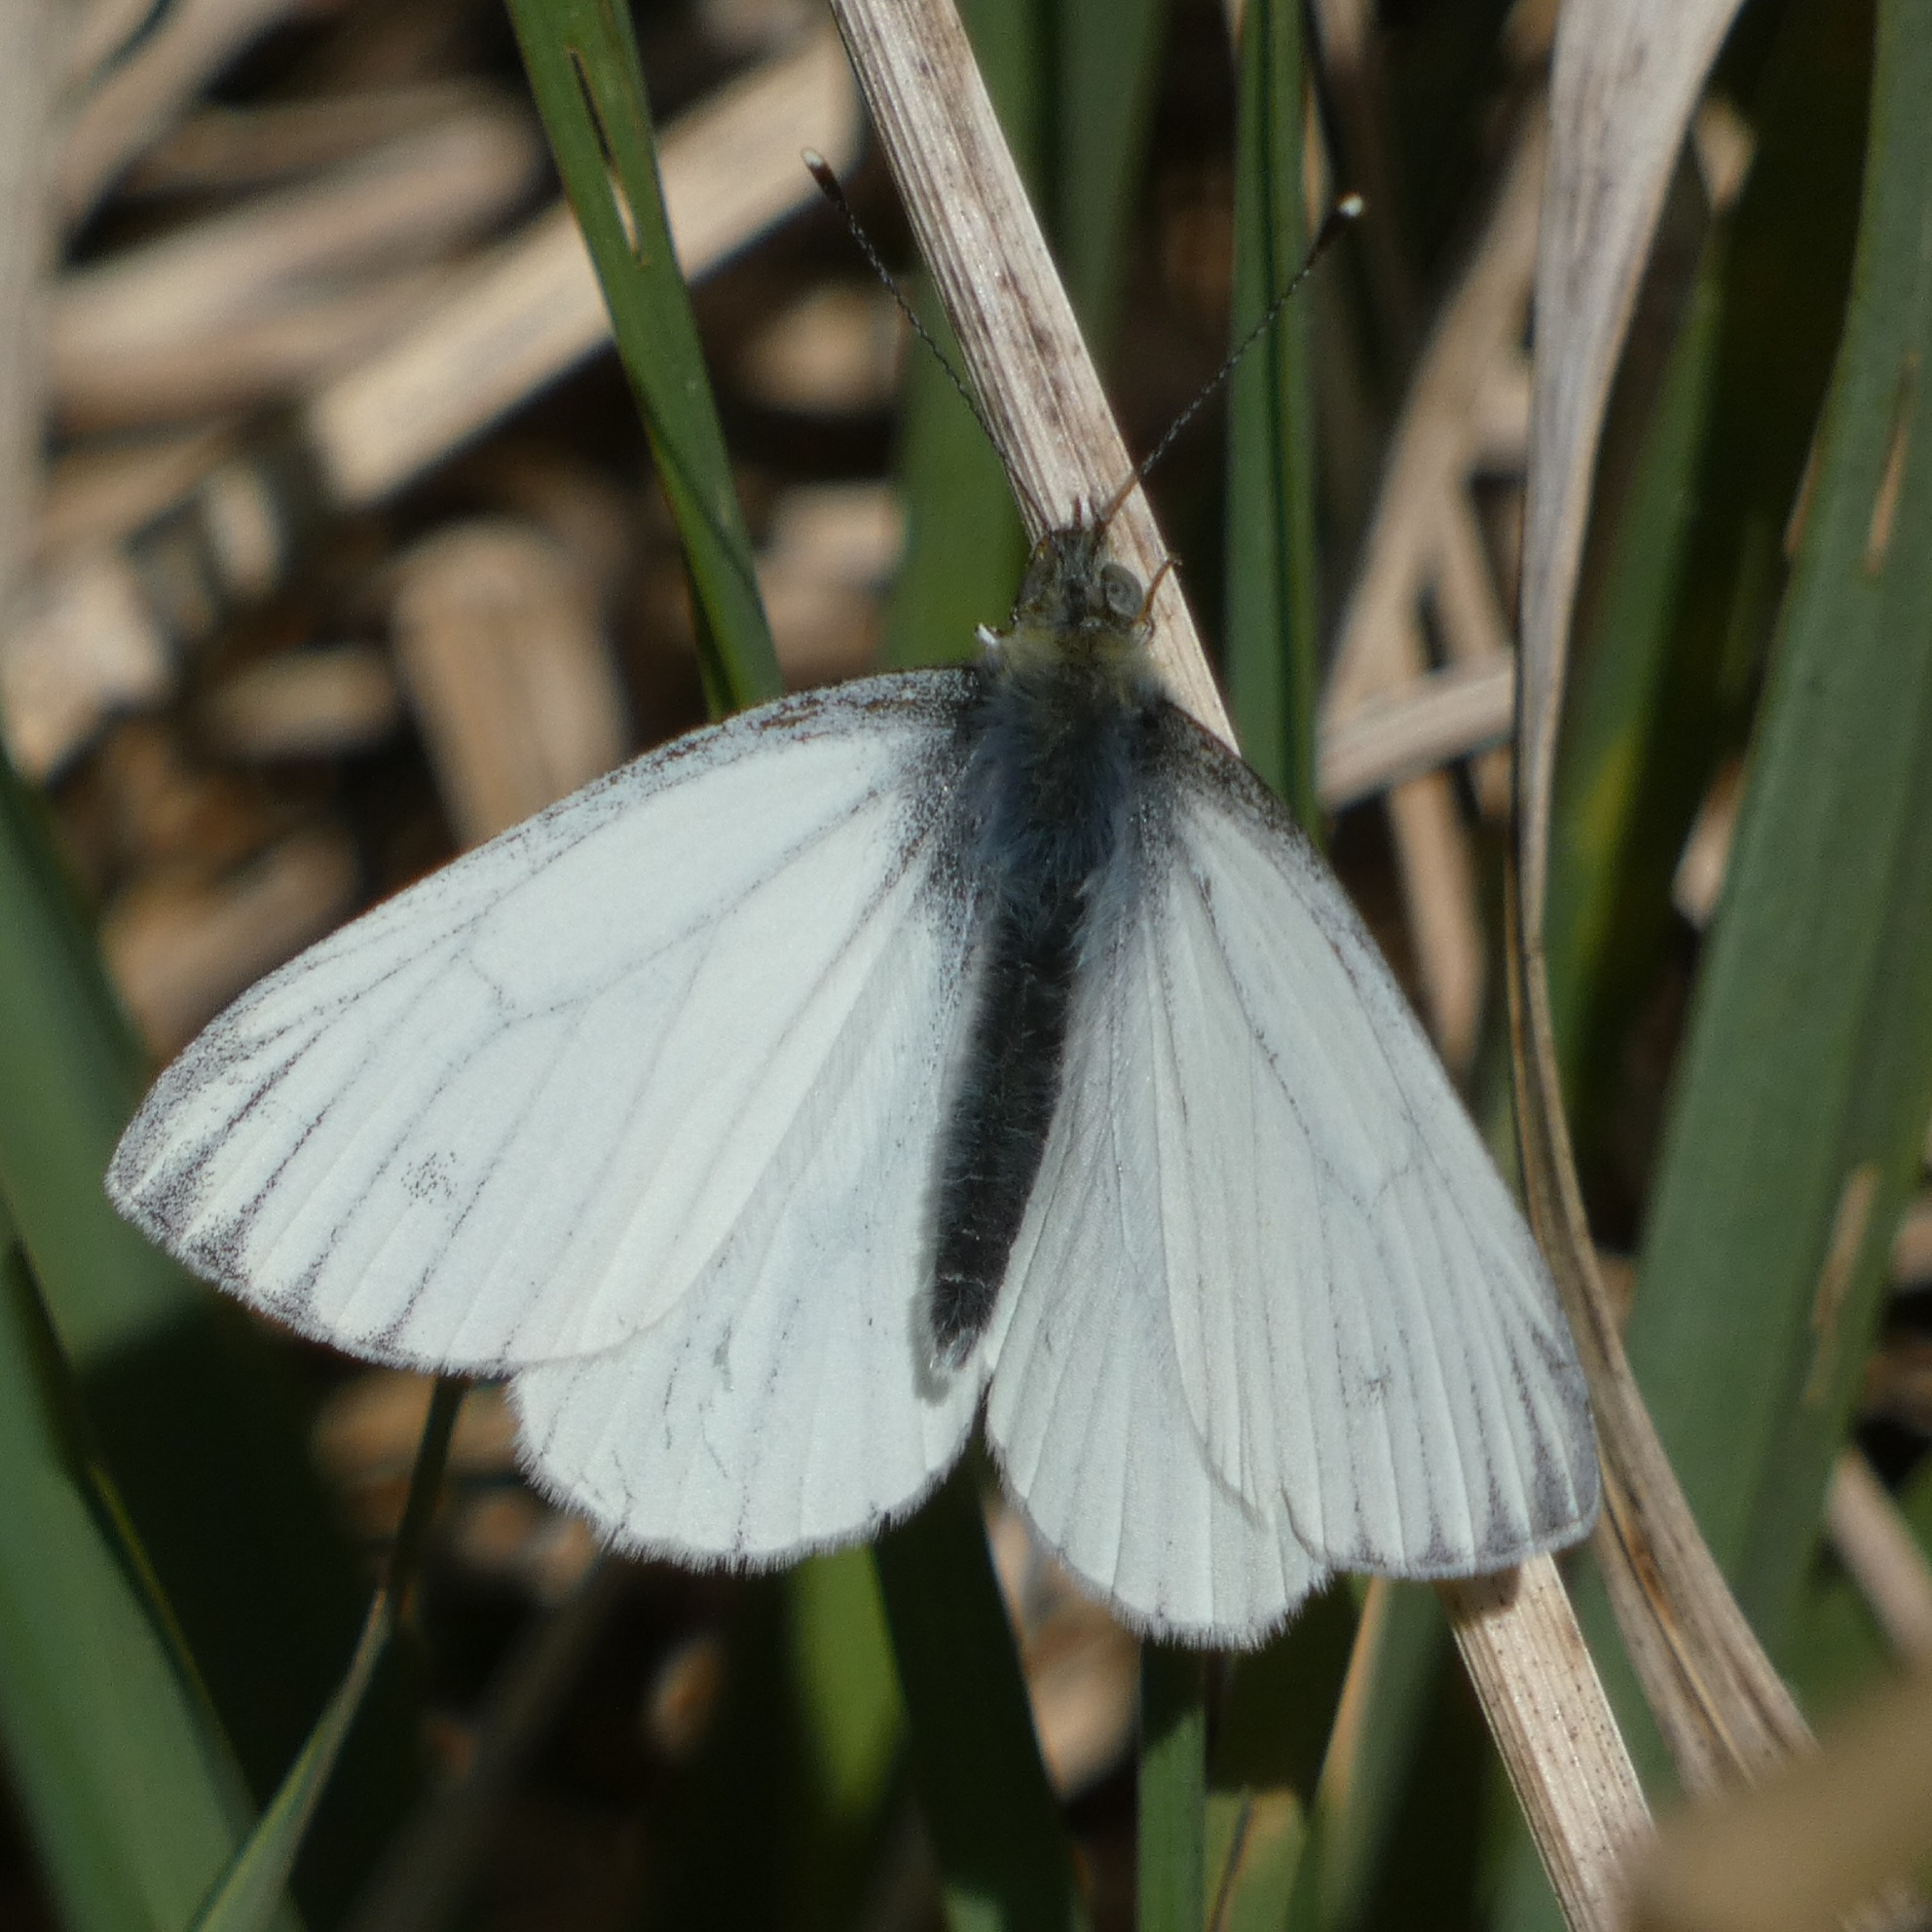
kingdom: Animalia
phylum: Arthropoda
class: Insecta
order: Lepidoptera
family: Pieridae
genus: Pieris
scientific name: Pieris napi
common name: Grønåret kålsommerfugl
